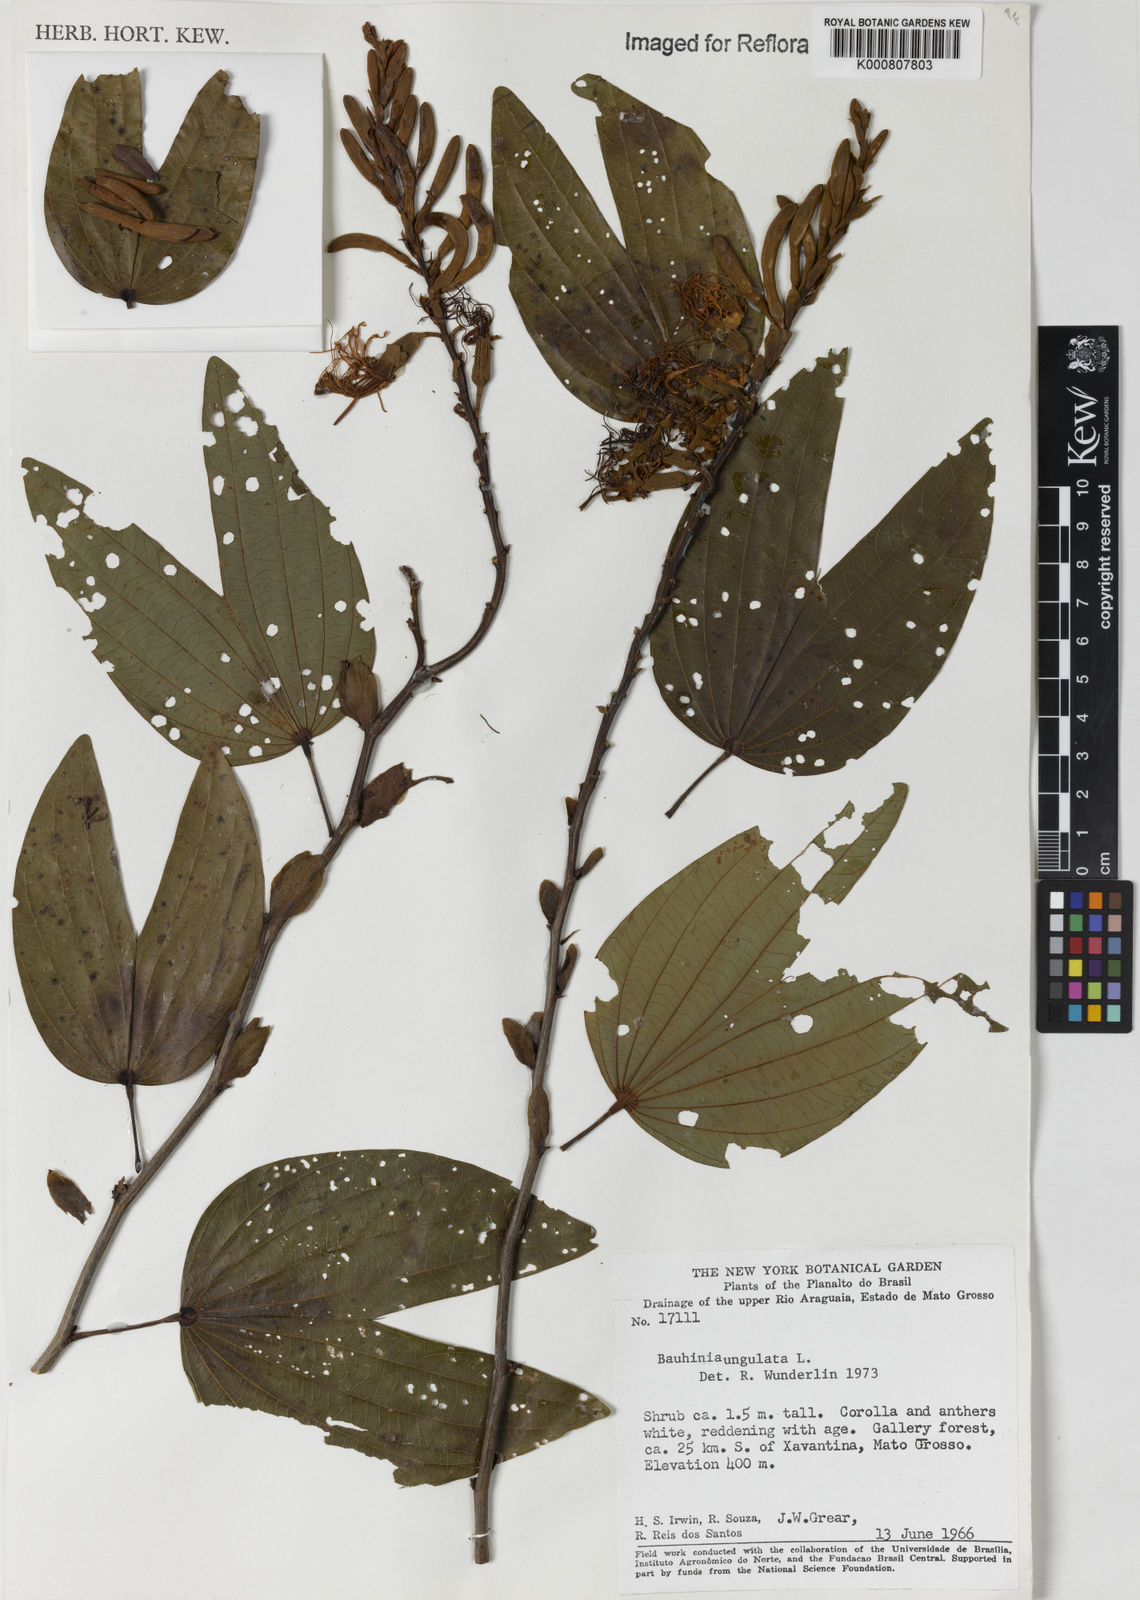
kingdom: Plantae
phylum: Tracheophyta
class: Magnoliopsida
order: Fabales
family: Fabaceae
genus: Bauhinia
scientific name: Bauhinia ungulata
